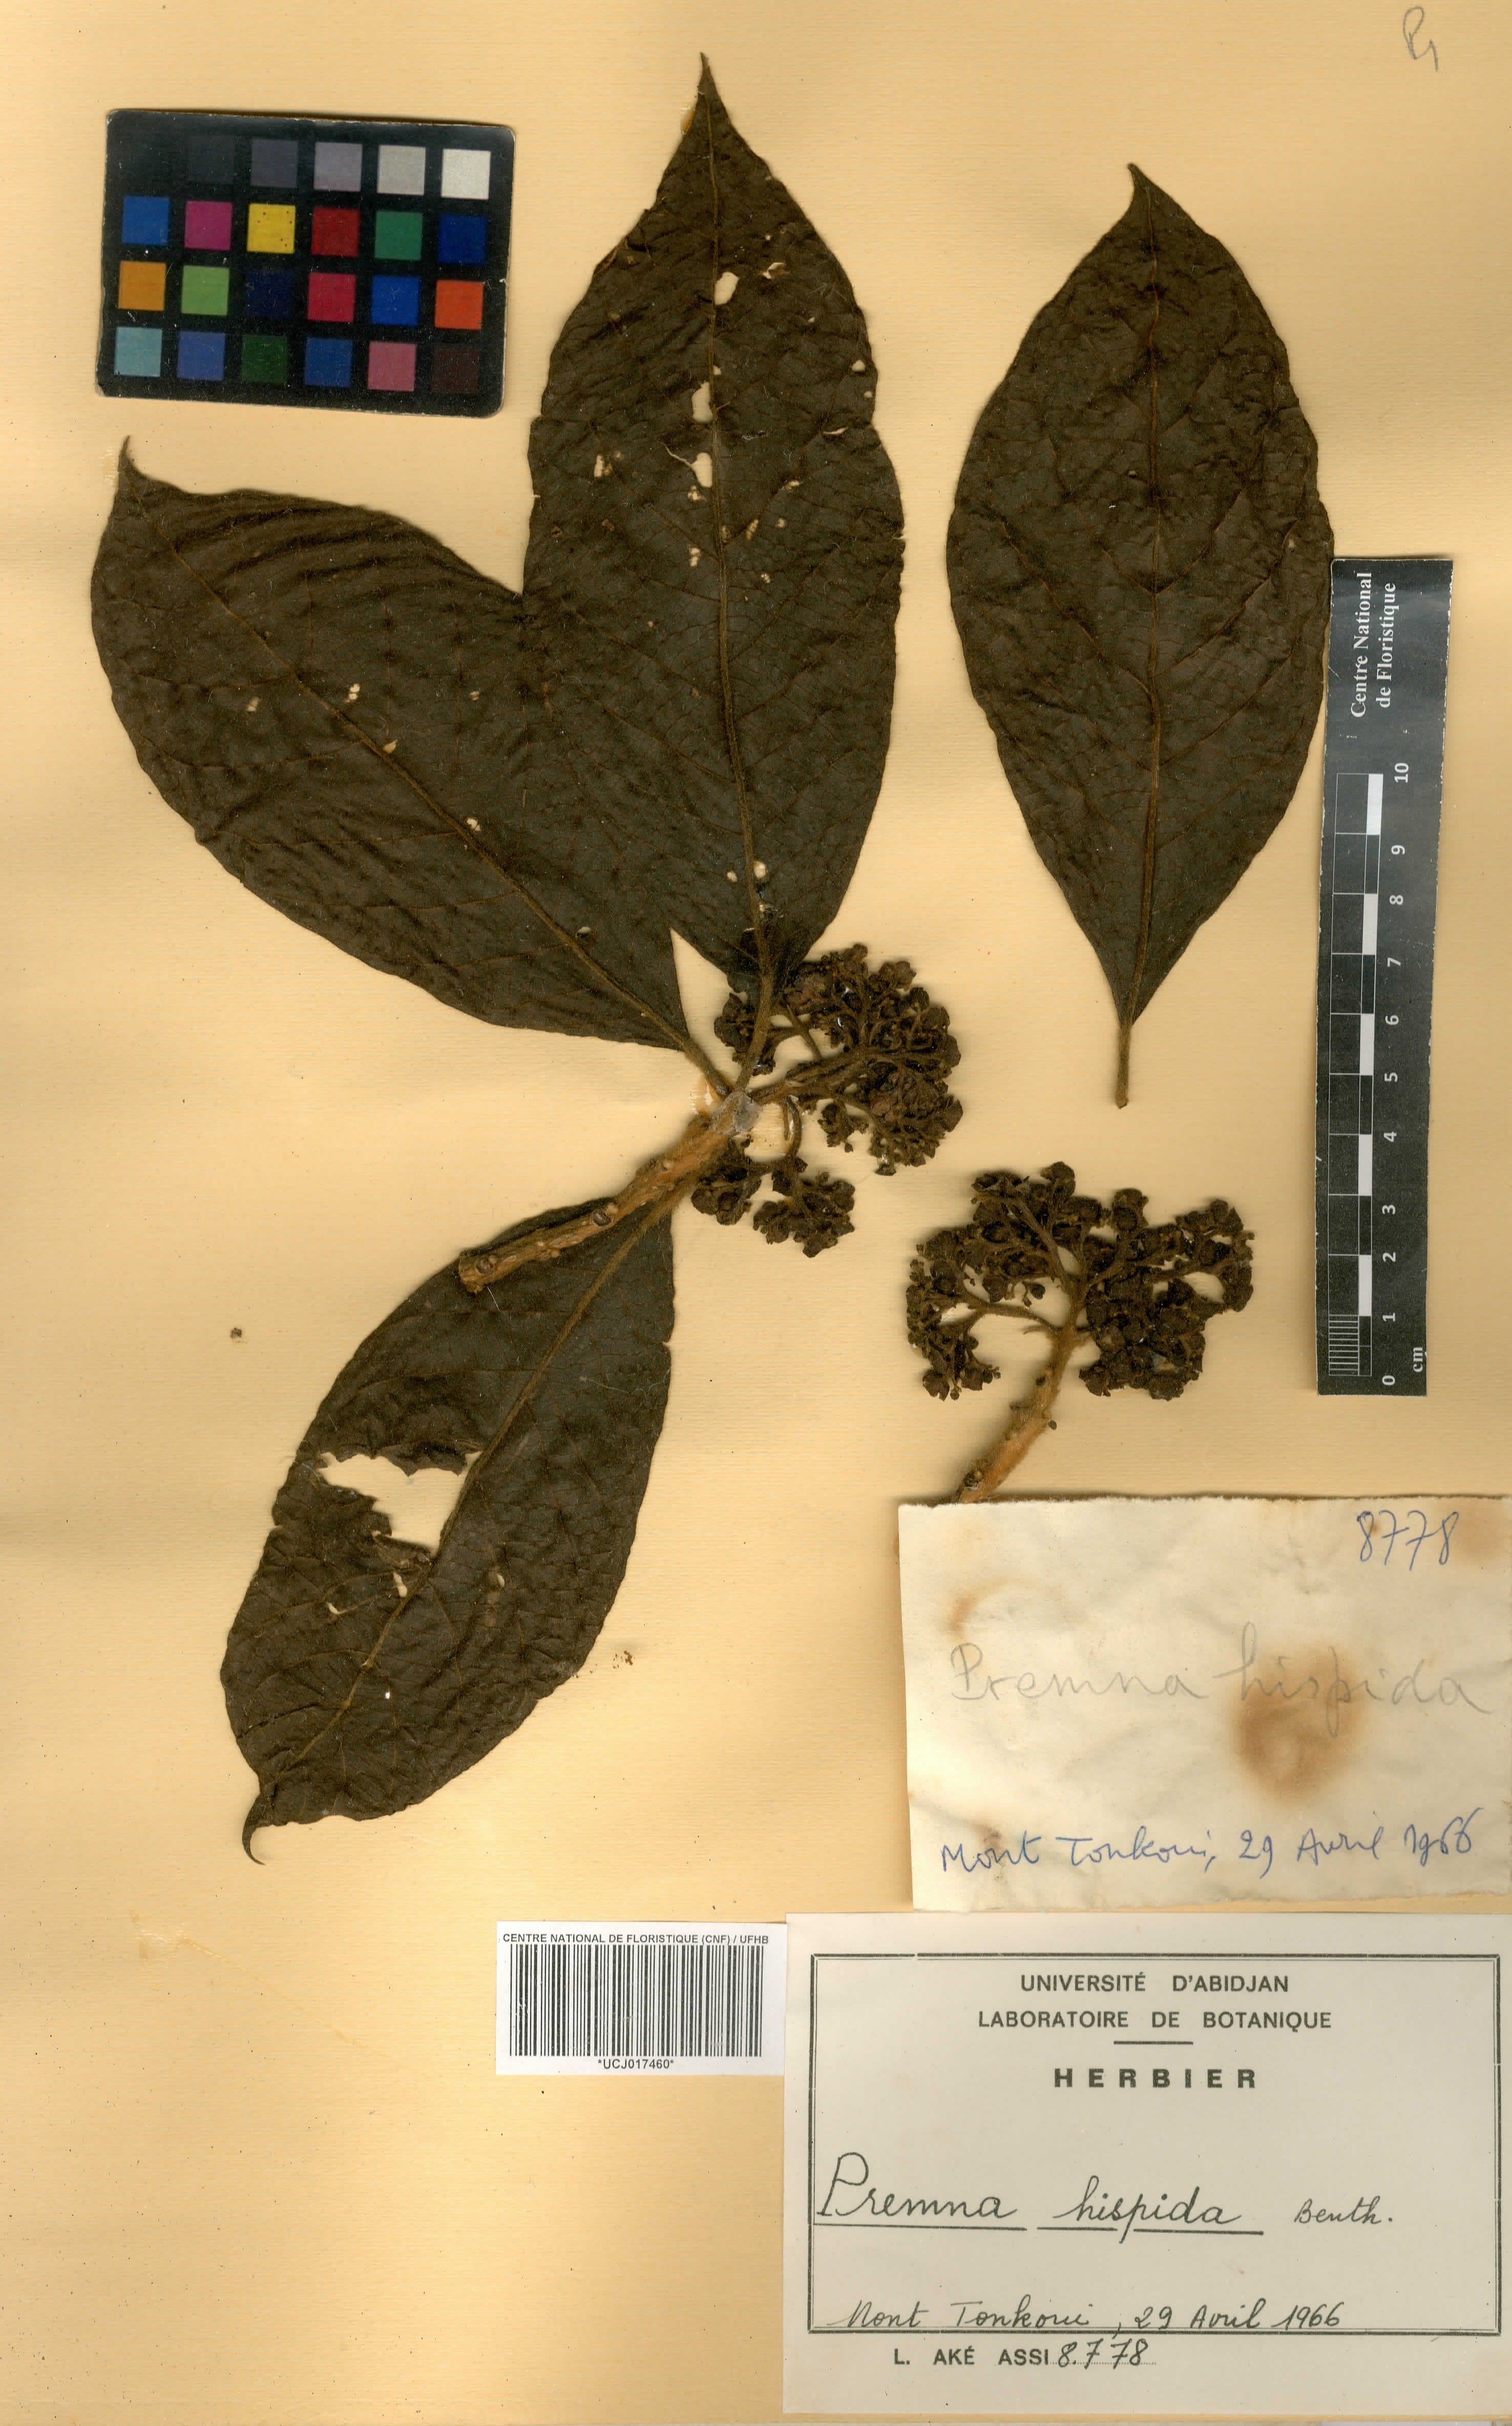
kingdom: Plantae
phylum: Tracheophyta
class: Magnoliopsida
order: Lamiales
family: Lamiaceae
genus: Premna
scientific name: Premna hispida
